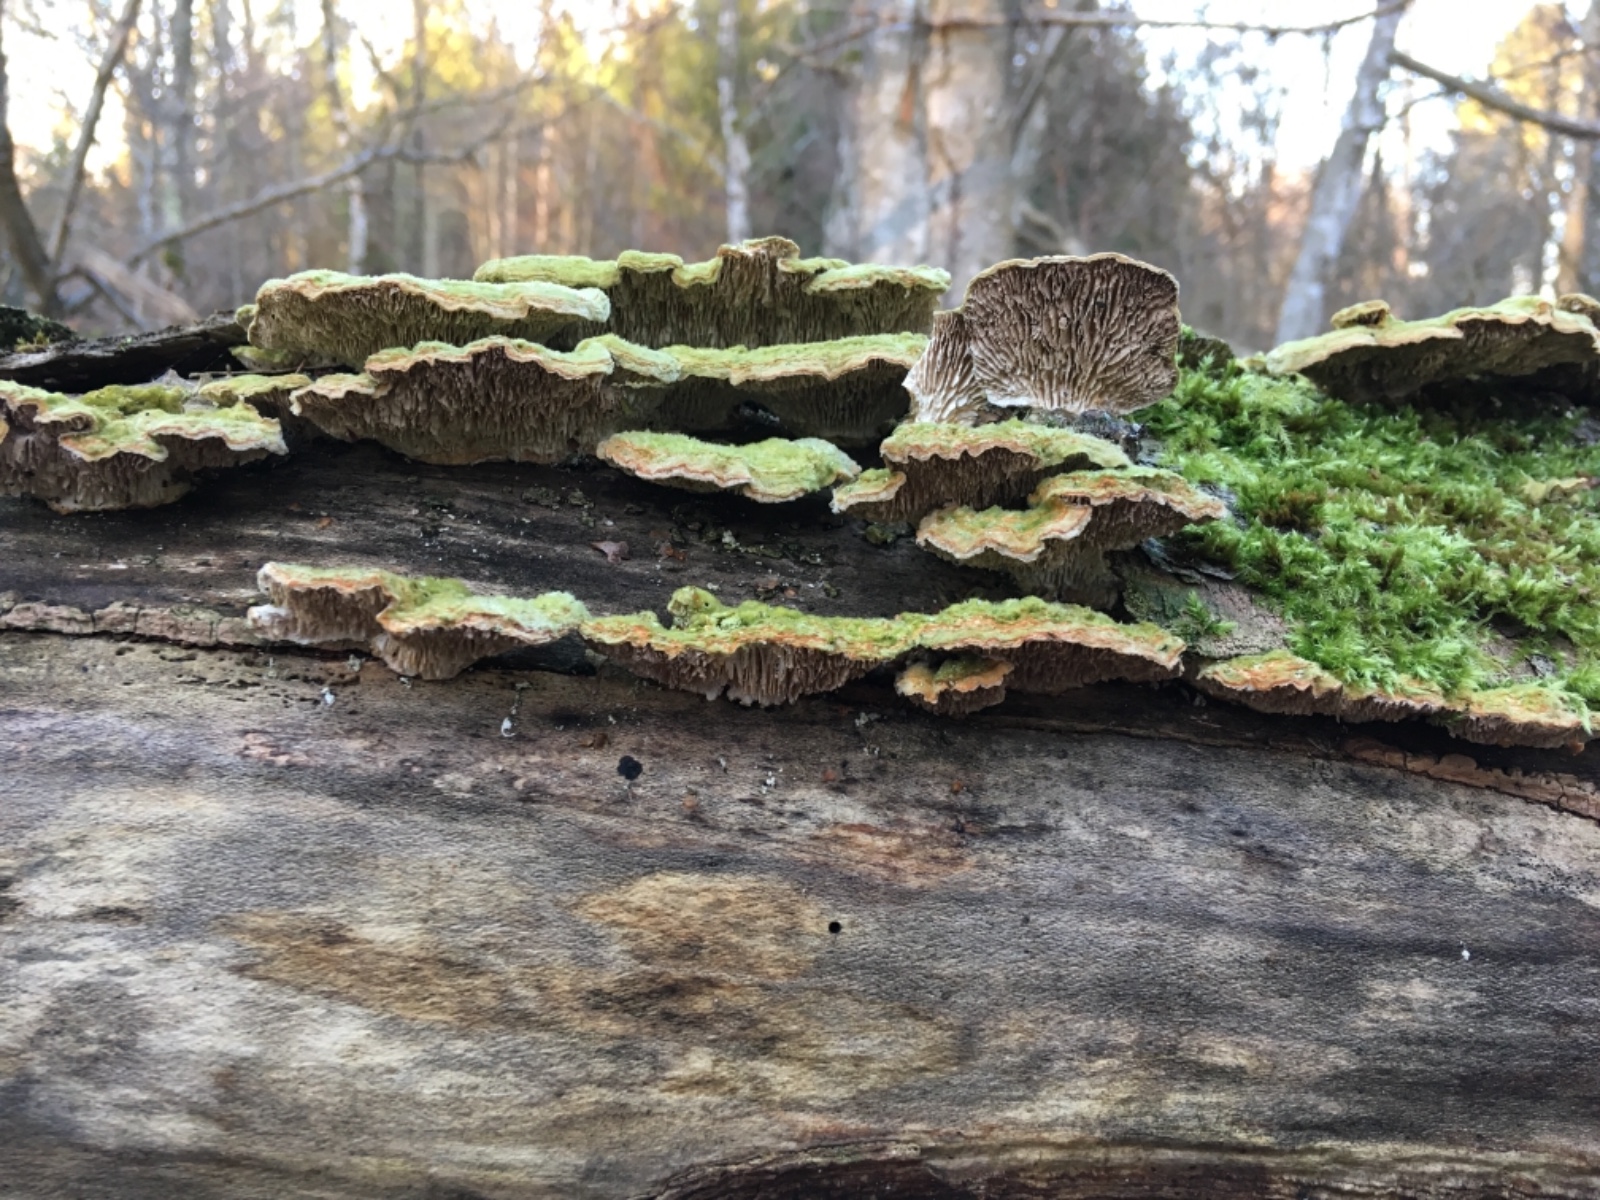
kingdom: Fungi
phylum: Basidiomycota
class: Agaricomycetes
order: Polyporales
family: Polyporaceae
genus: Lenzites
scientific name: Lenzites betulinus
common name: birke-læderporesvamp
